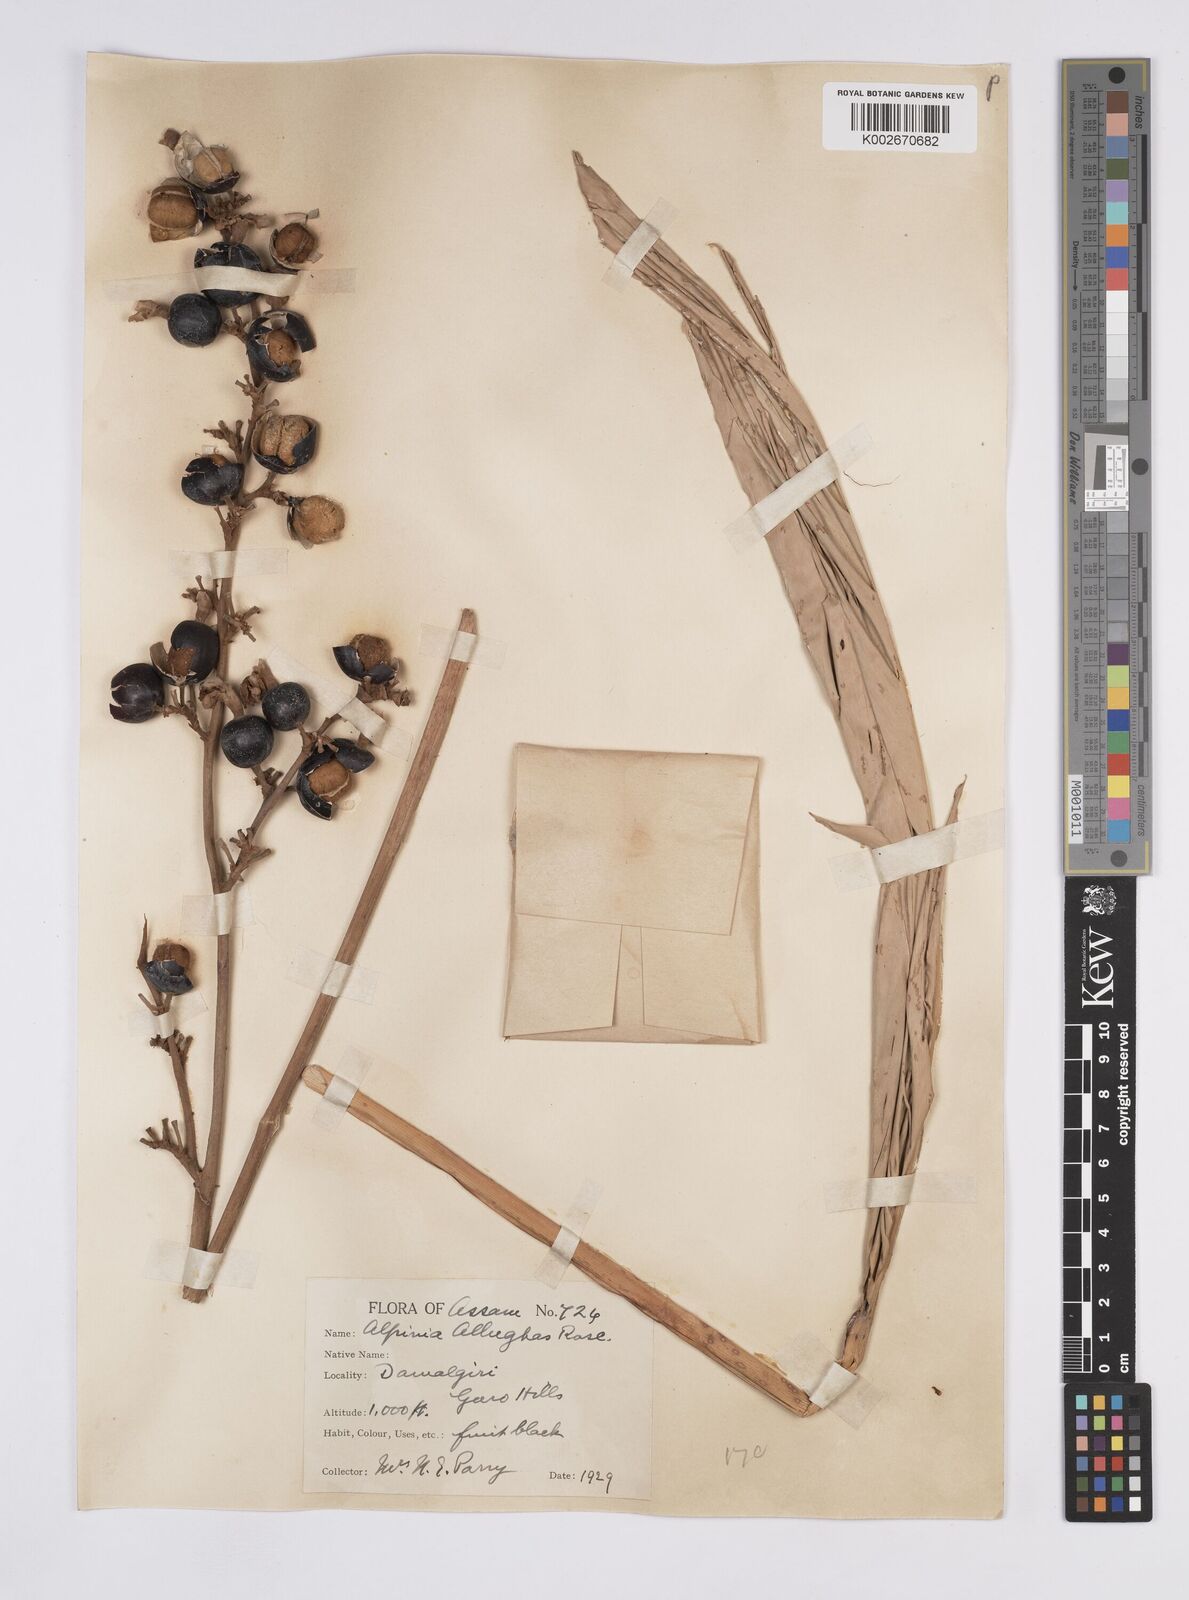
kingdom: Plantae
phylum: Tracheophyta
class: Liliopsida
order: Zingiberales
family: Zingiberaceae
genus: Alpinia
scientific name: Alpinia nigra
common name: Black fruited galanga
